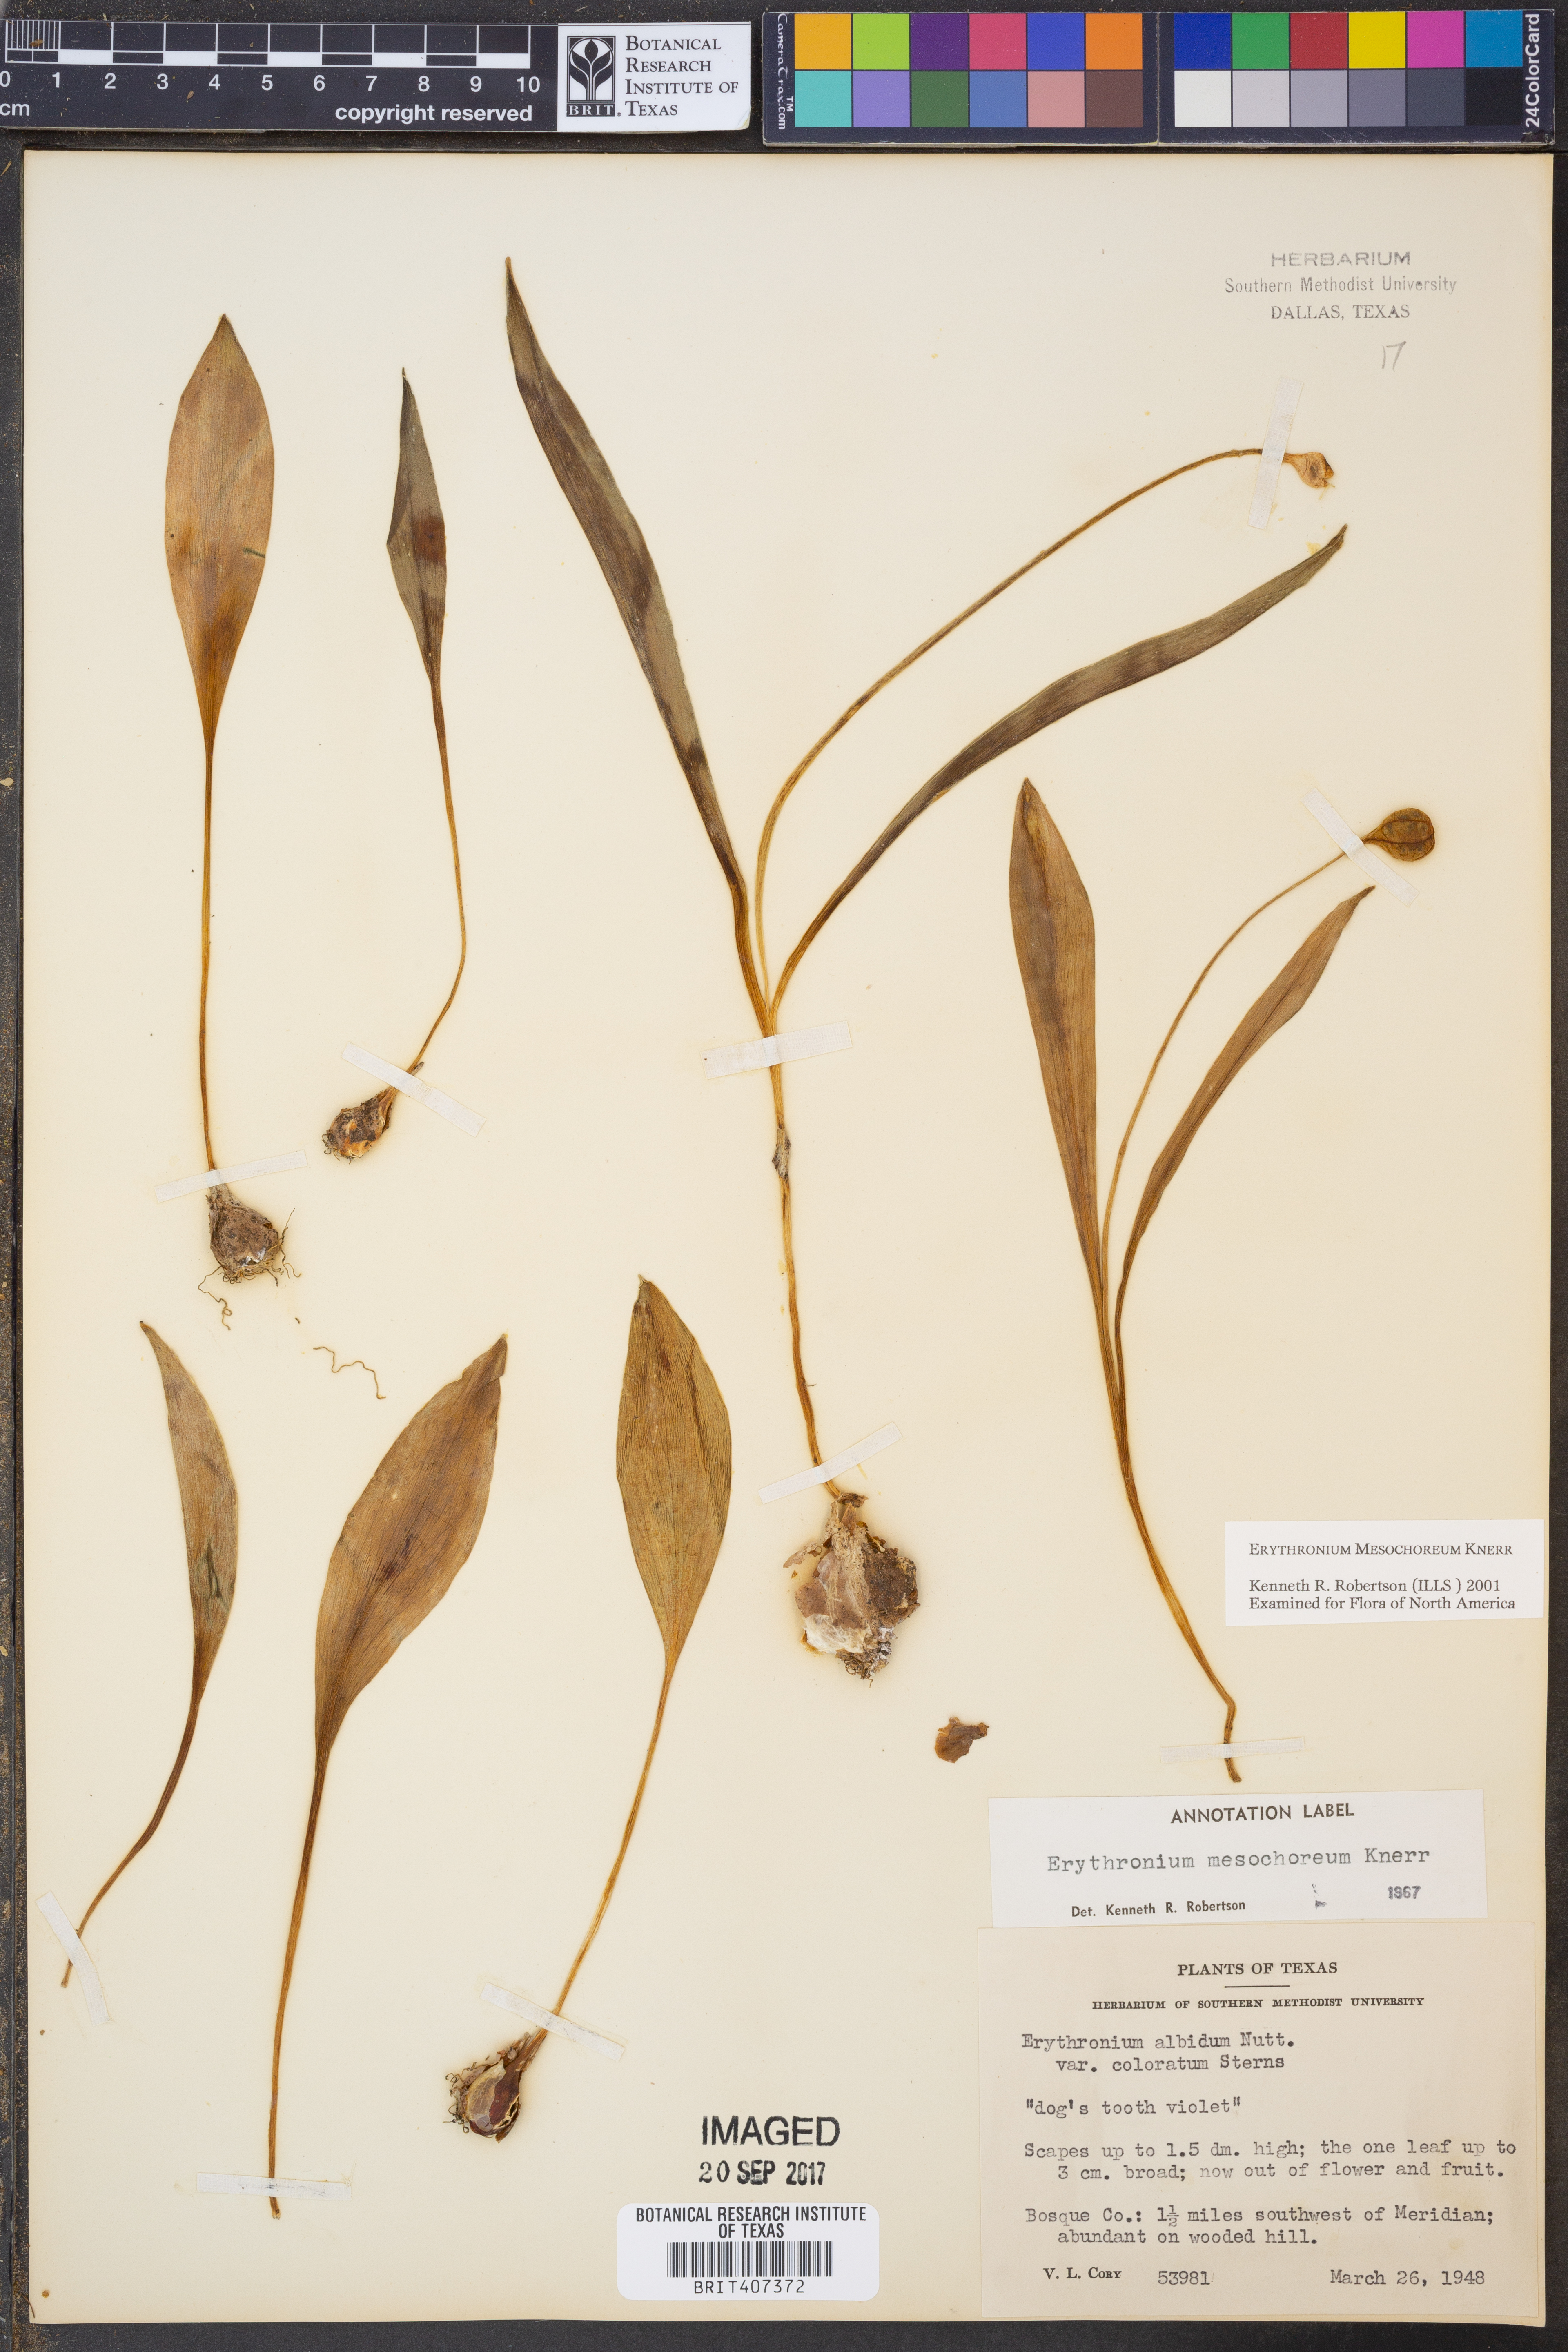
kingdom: Plantae
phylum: Tracheophyta
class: Liliopsida
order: Liliales
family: Liliaceae
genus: Erythronium
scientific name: Erythronium mesochoreum
